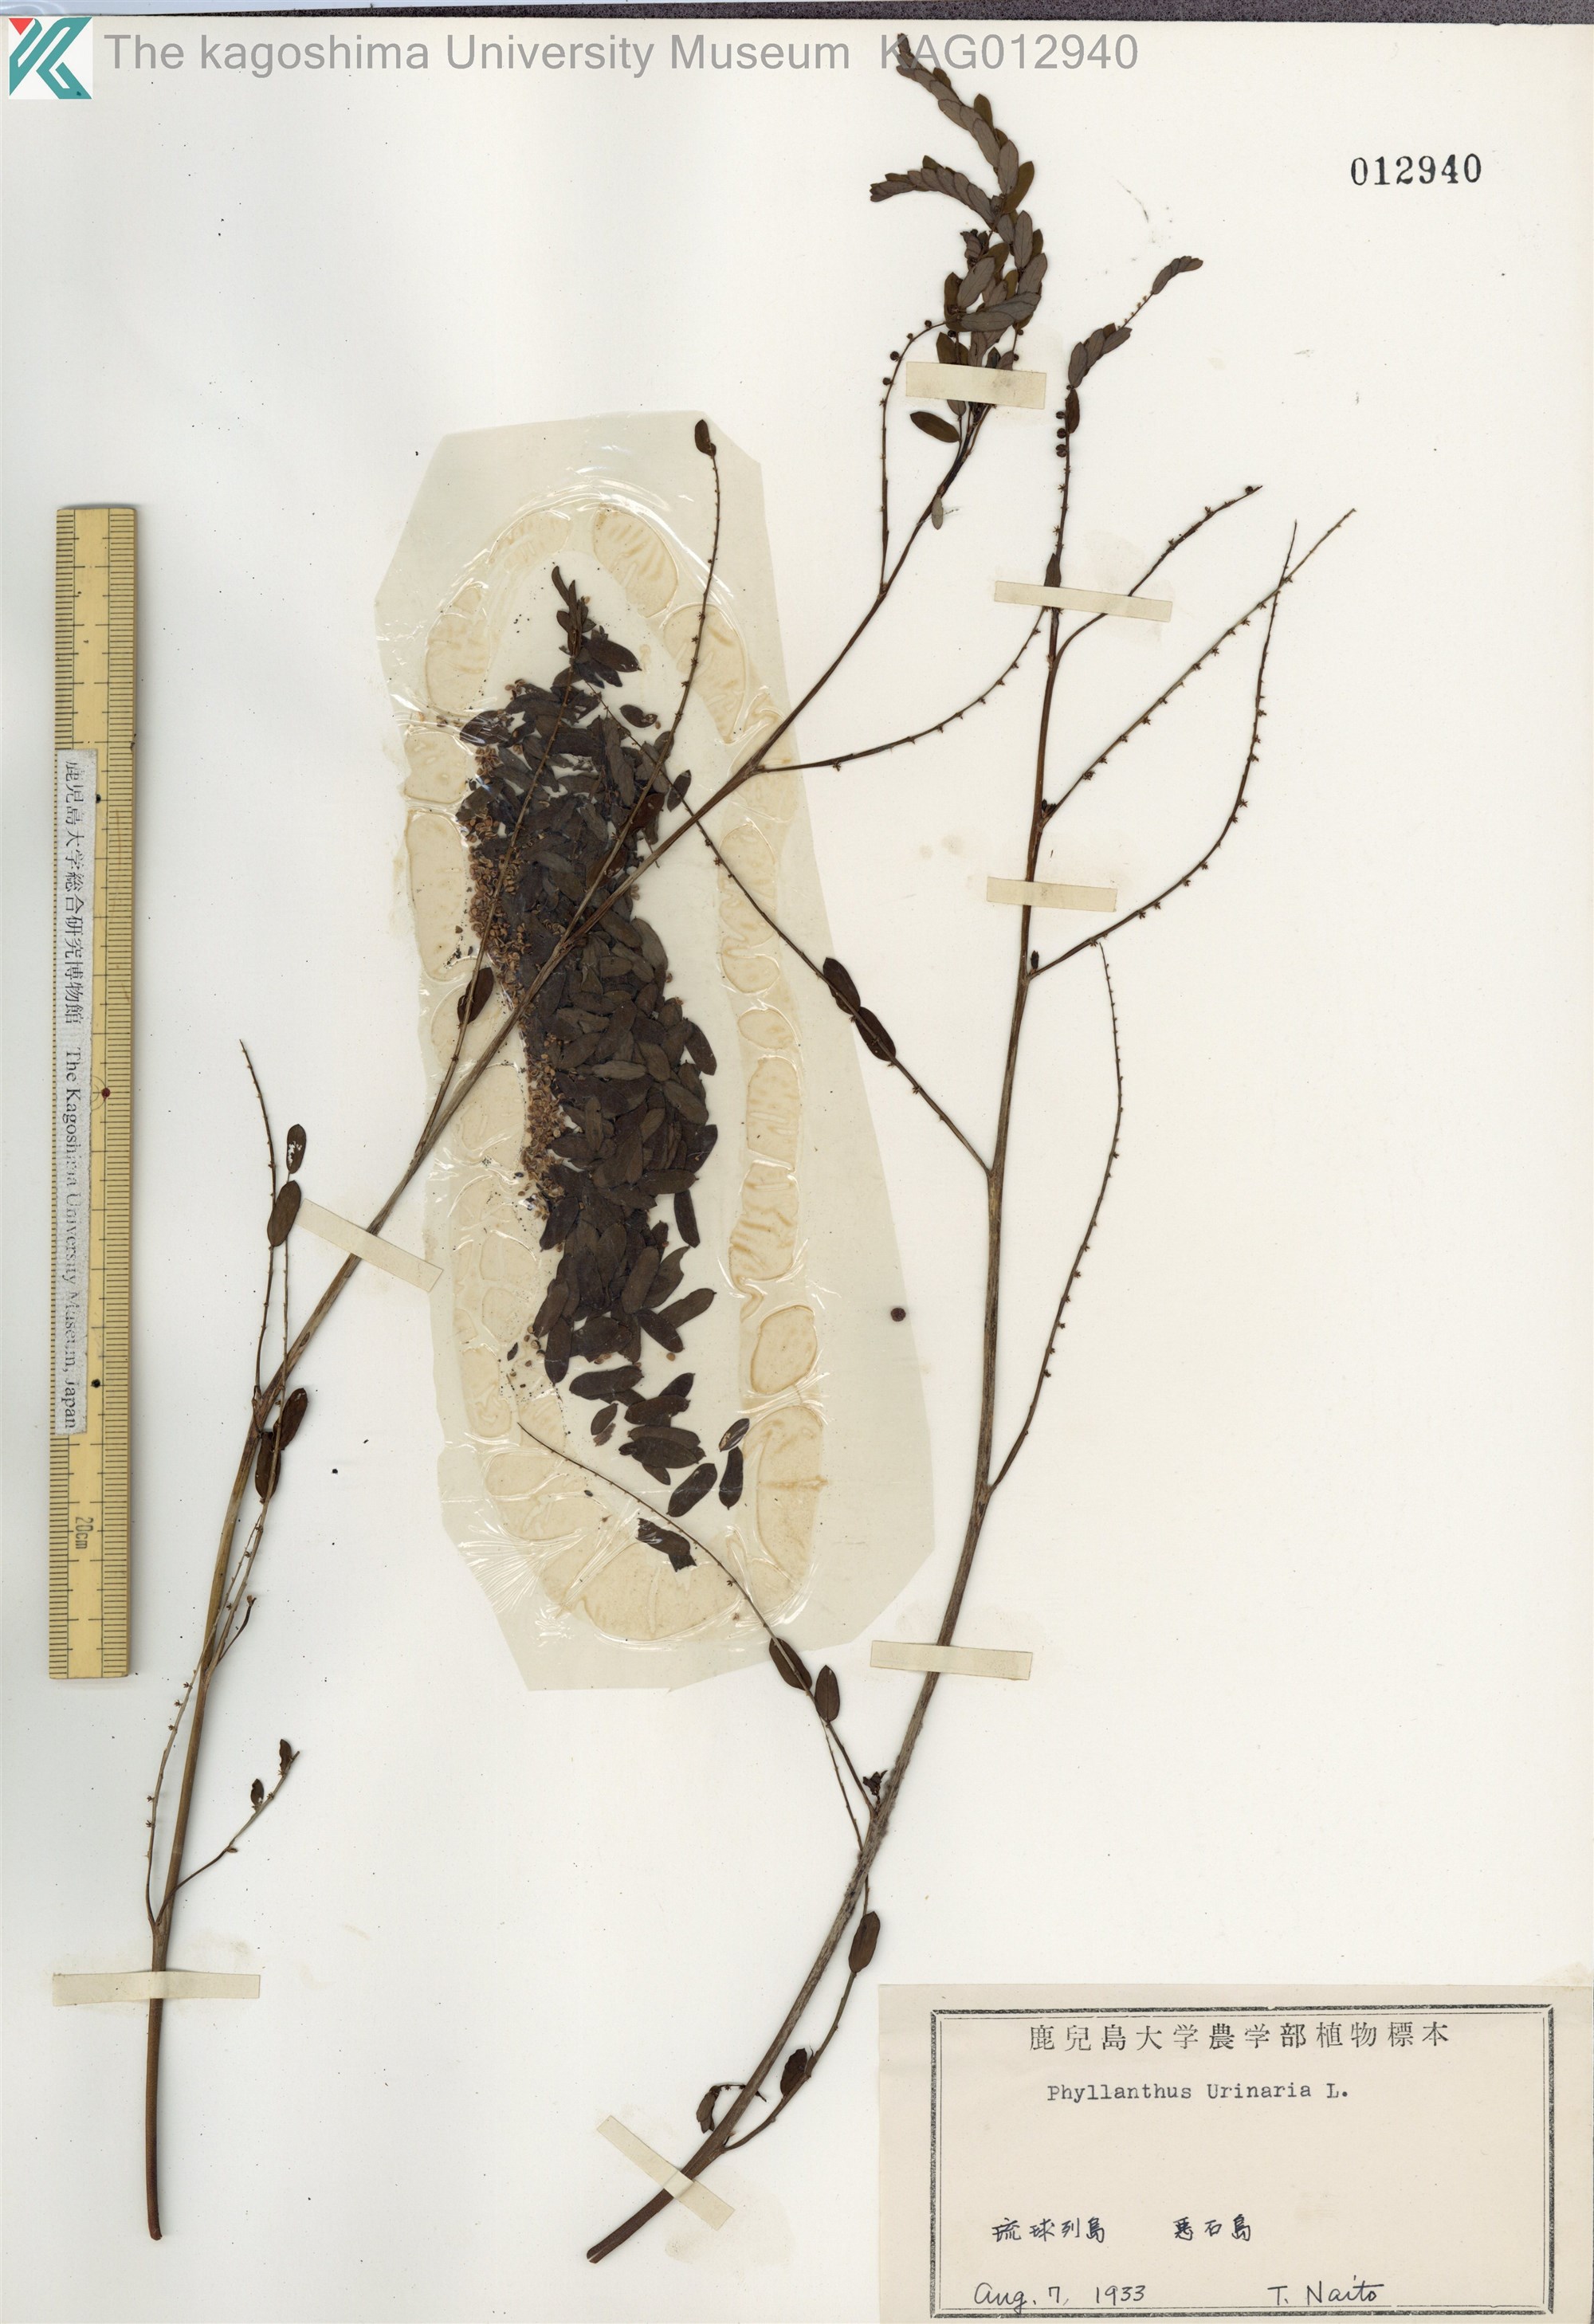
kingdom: Plantae
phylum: Tracheophyta
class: Magnoliopsida
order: Malpighiales
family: Phyllanthaceae
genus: Phyllanthus
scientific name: Phyllanthus urinaria
